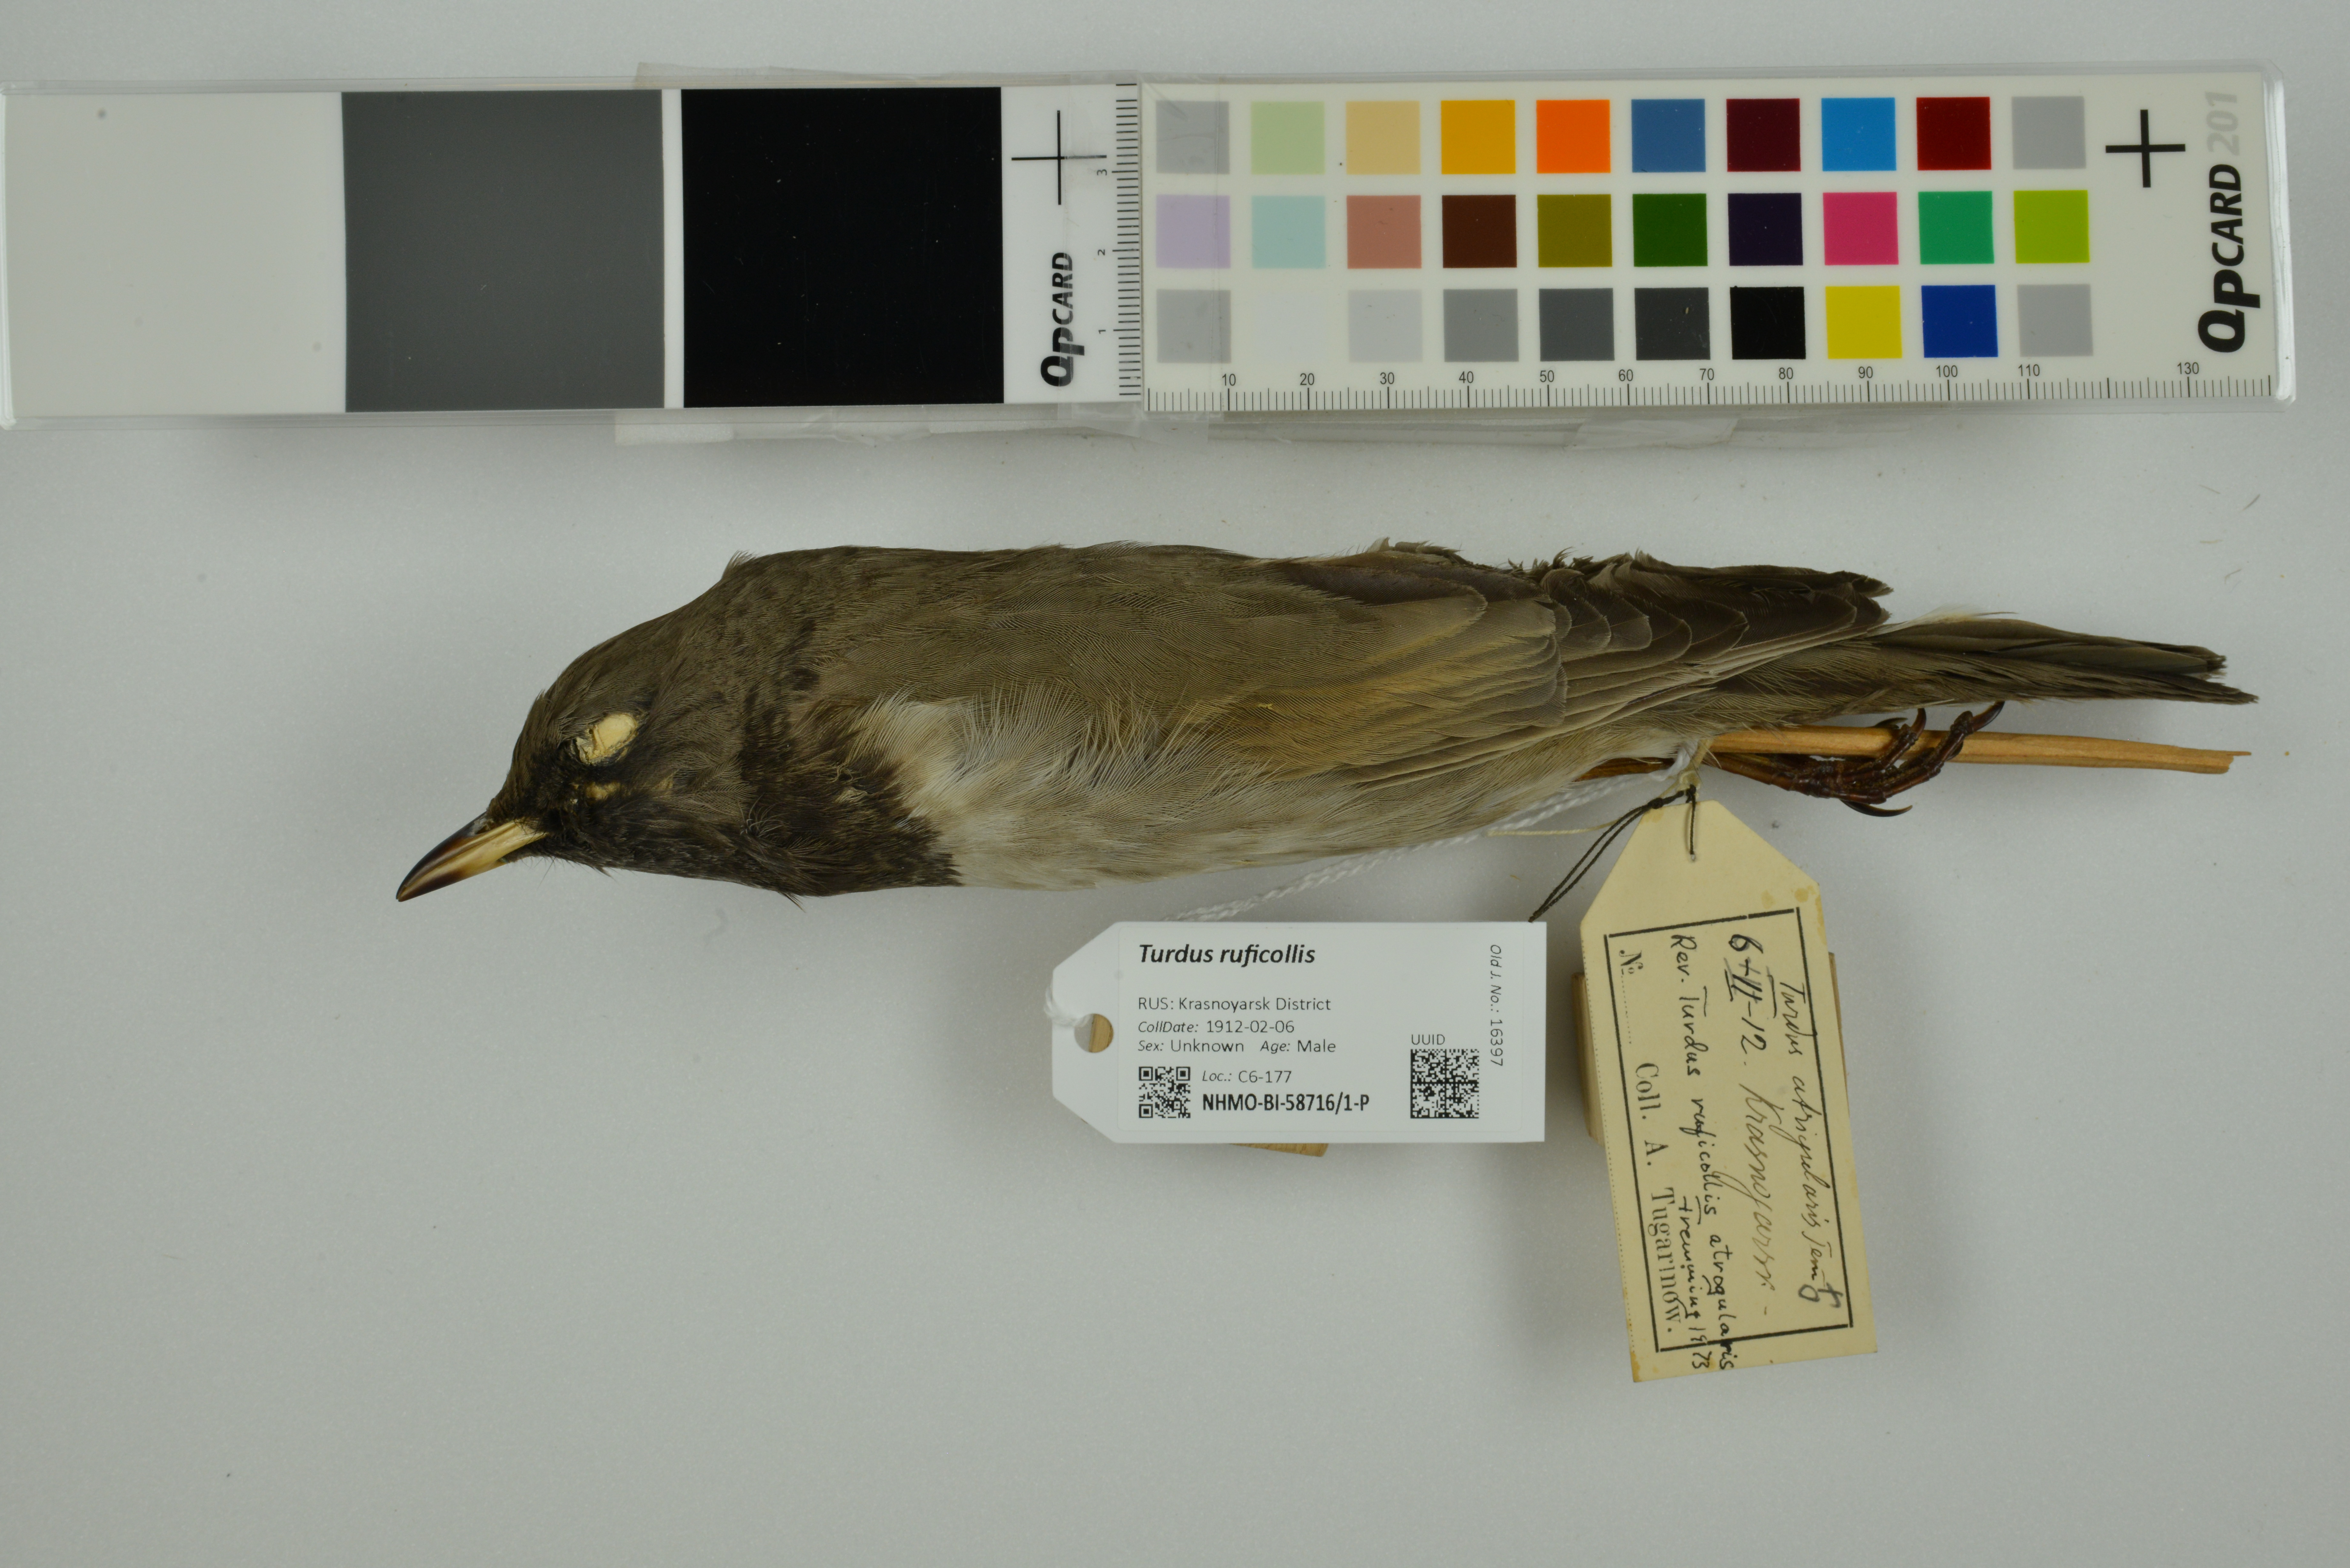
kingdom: Animalia
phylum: Chordata
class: Aves
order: Passeriformes
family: Turdidae
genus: Turdus
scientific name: Turdus ruficollis
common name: Red-throated thrush
